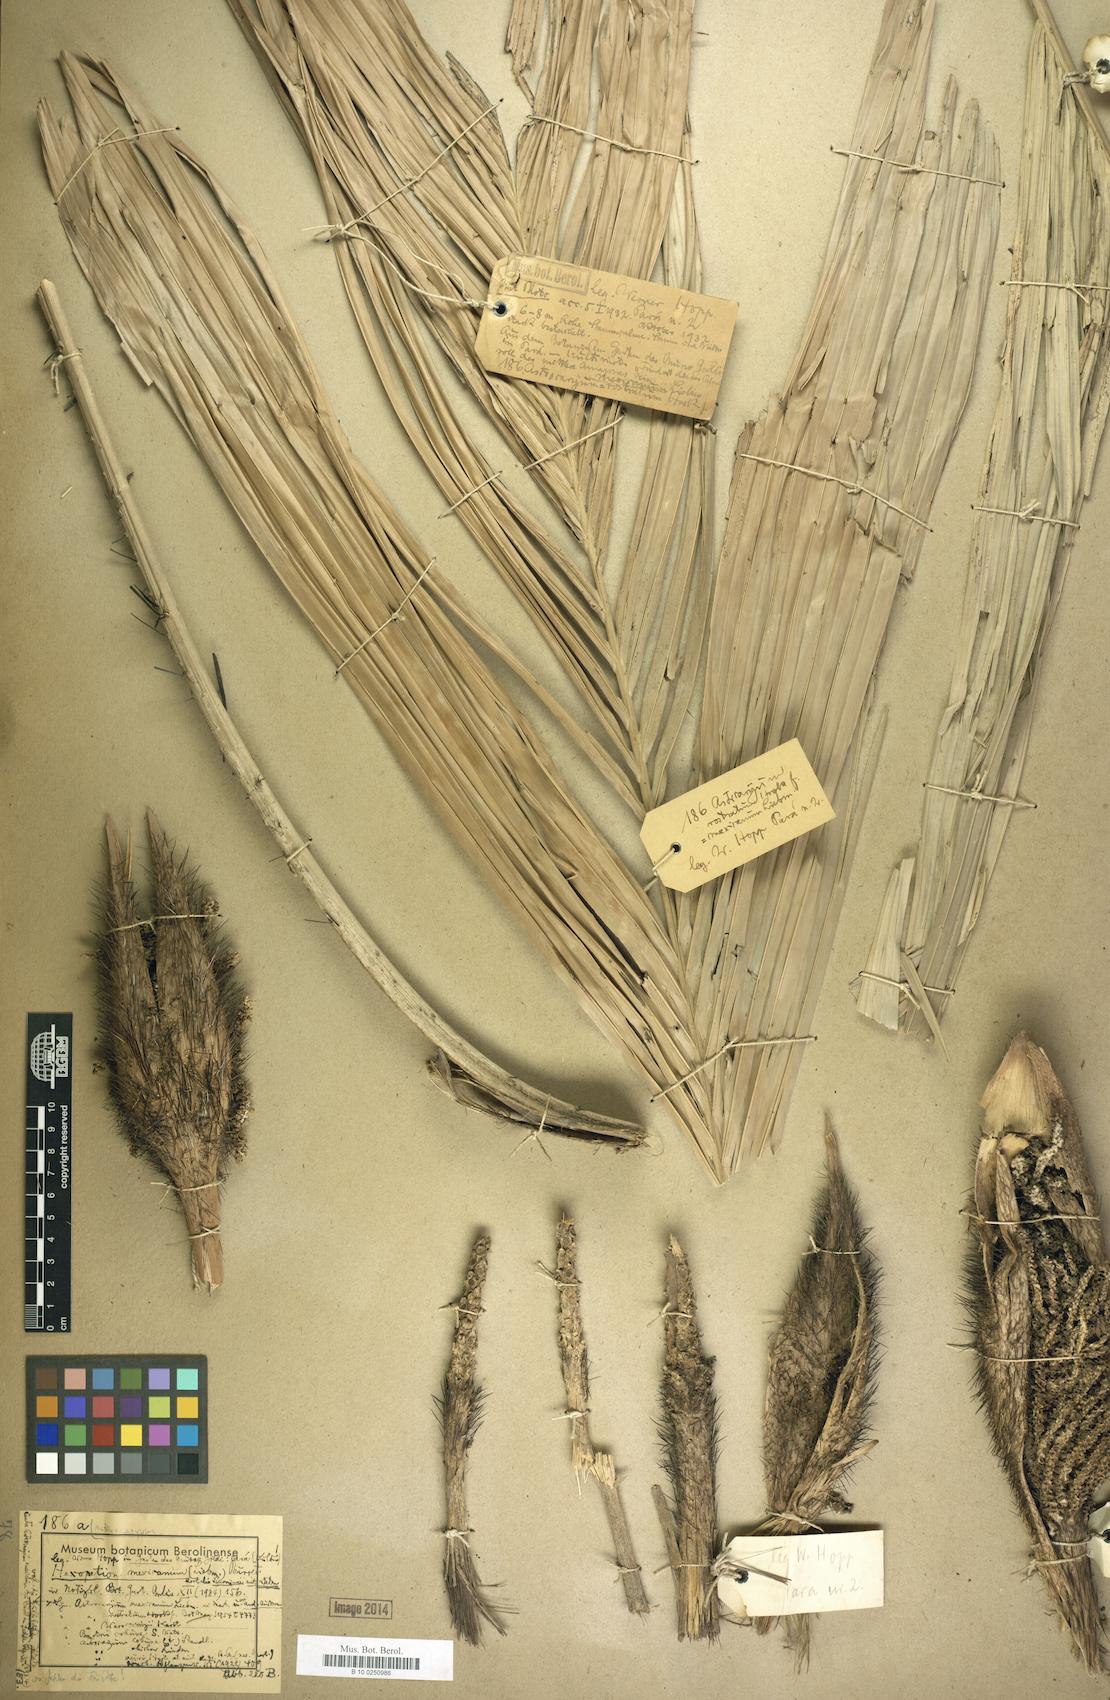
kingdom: Plantae
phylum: Tracheophyta
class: Liliopsida
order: Arecales
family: Arecaceae
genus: Astrocaryum
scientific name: Astrocaryum mexicana
